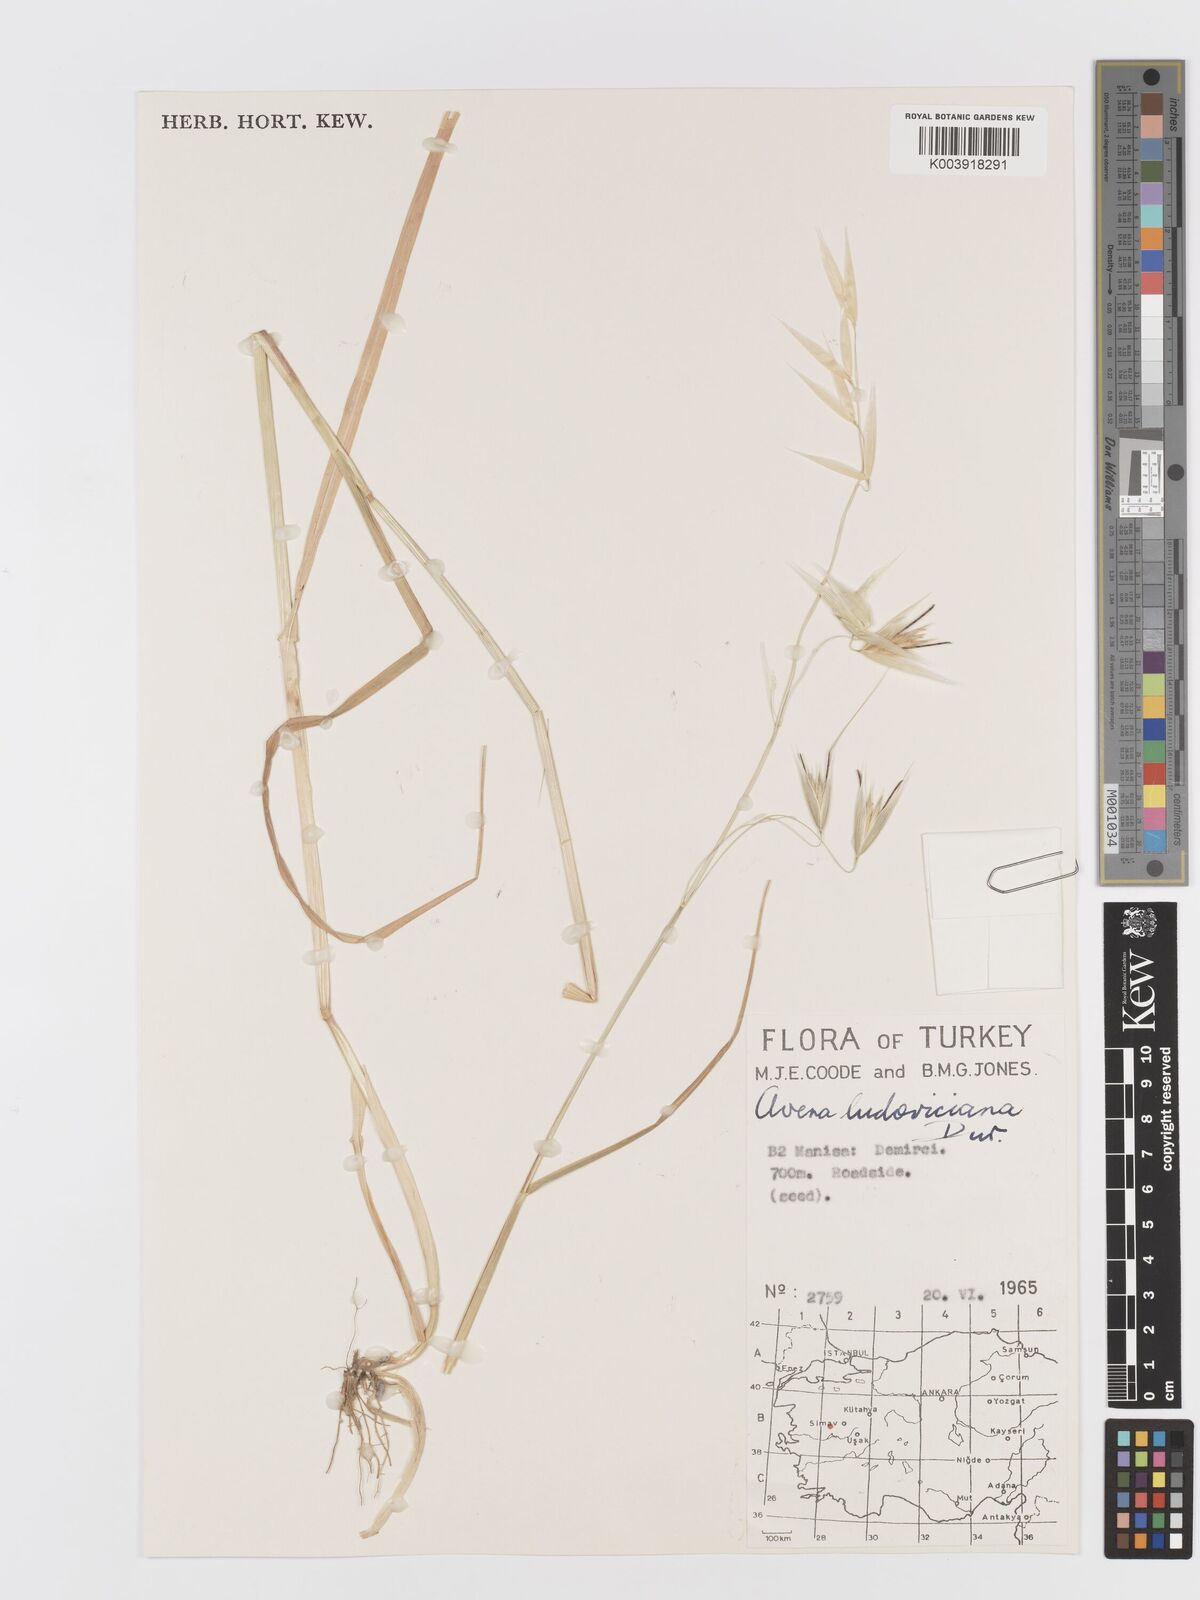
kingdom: Plantae
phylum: Tracheophyta
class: Liliopsida
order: Poales
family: Poaceae
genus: Avena
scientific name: Avena sterilis
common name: Animated oat
